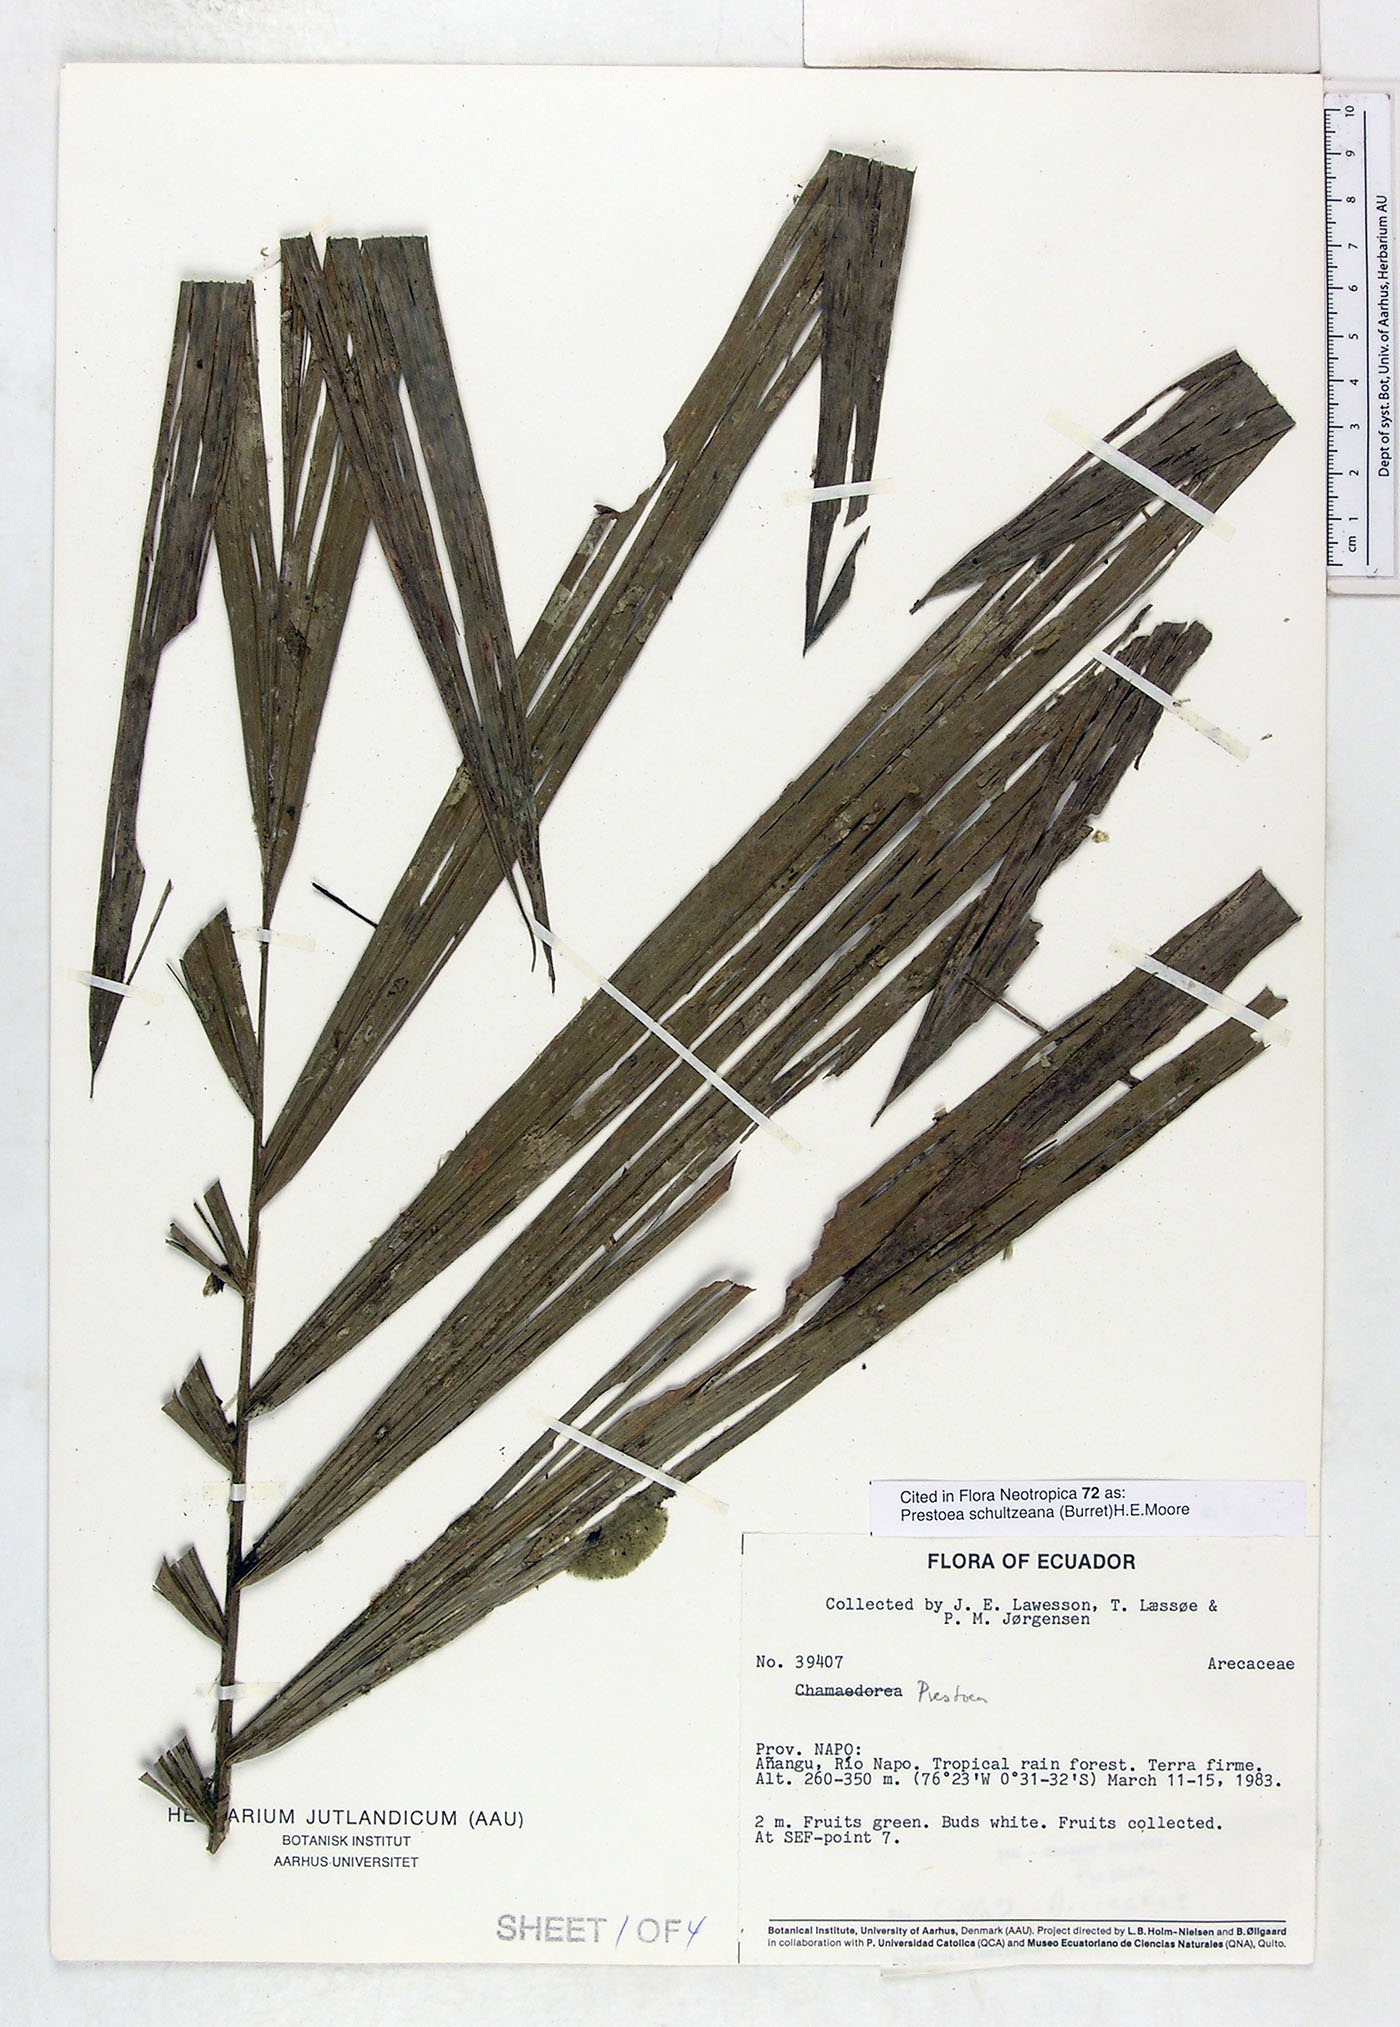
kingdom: Plantae
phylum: Tracheophyta
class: Liliopsida
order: Arecales
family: Arecaceae
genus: Prestoea
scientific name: Prestoea schultzeana
